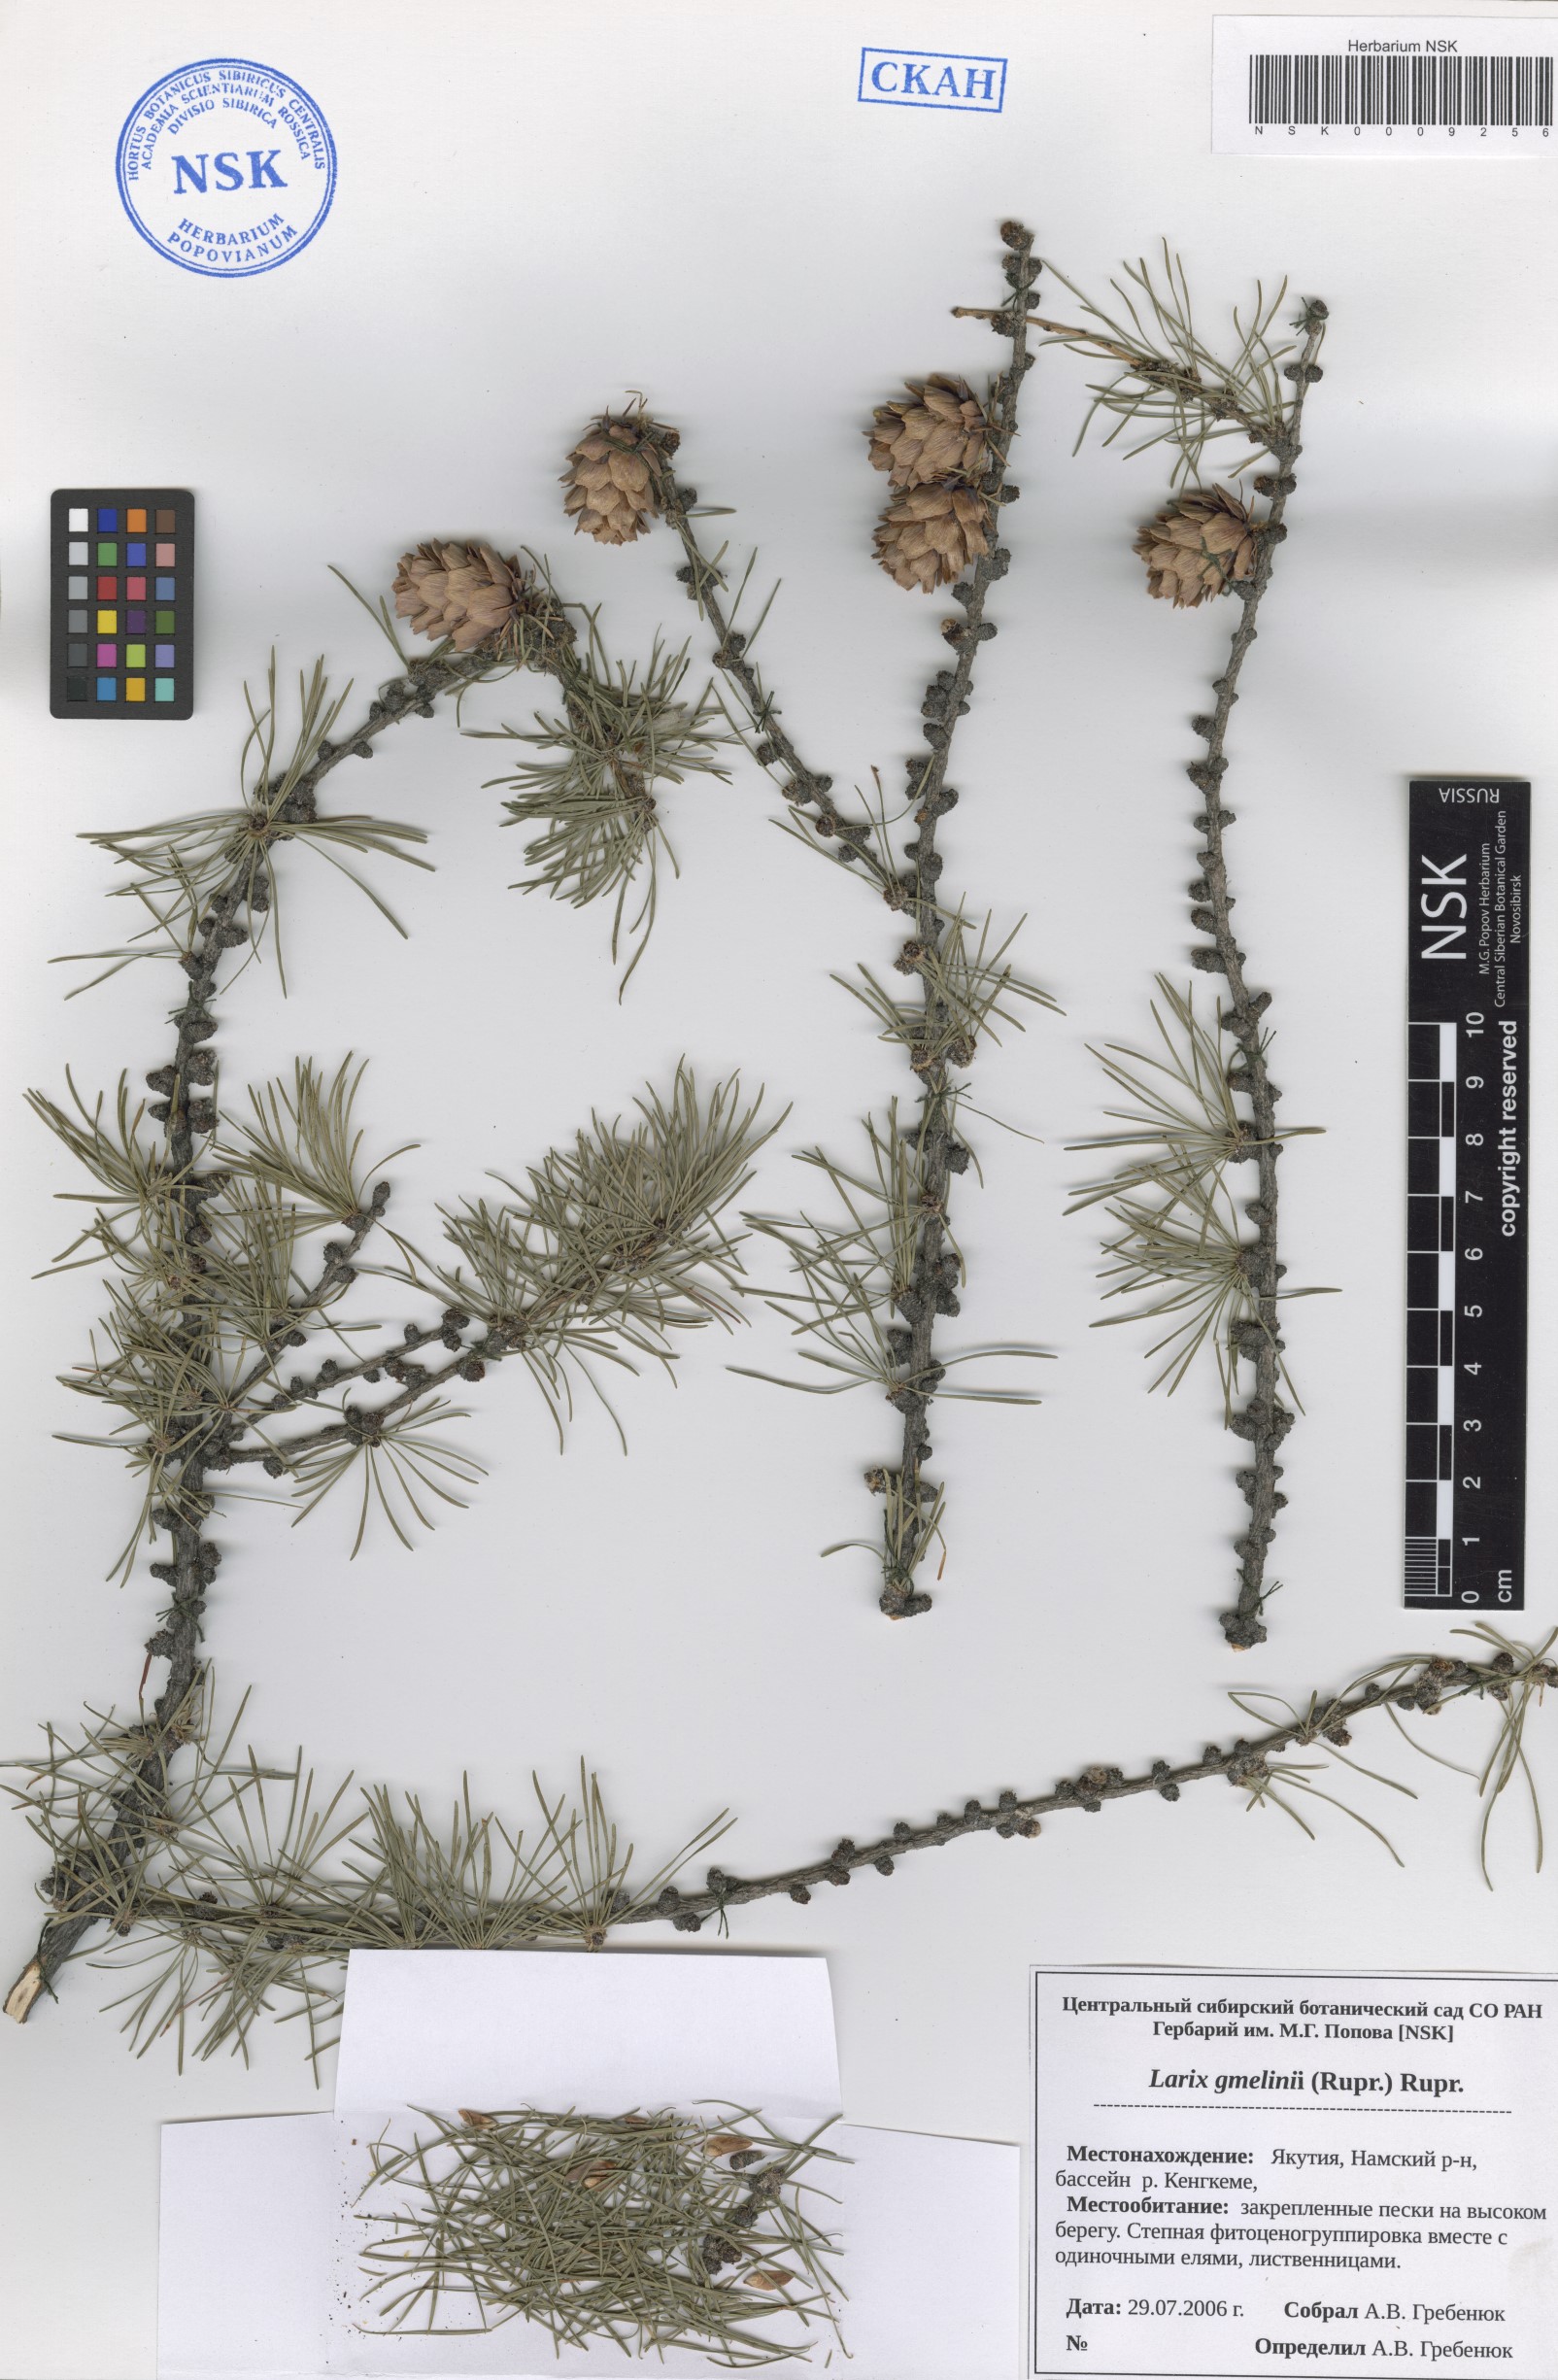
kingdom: Plantae
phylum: Tracheophyta
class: Pinopsida
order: Pinales
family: Pinaceae
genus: Larix
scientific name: Larix gmelinii
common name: Dahurian larch
